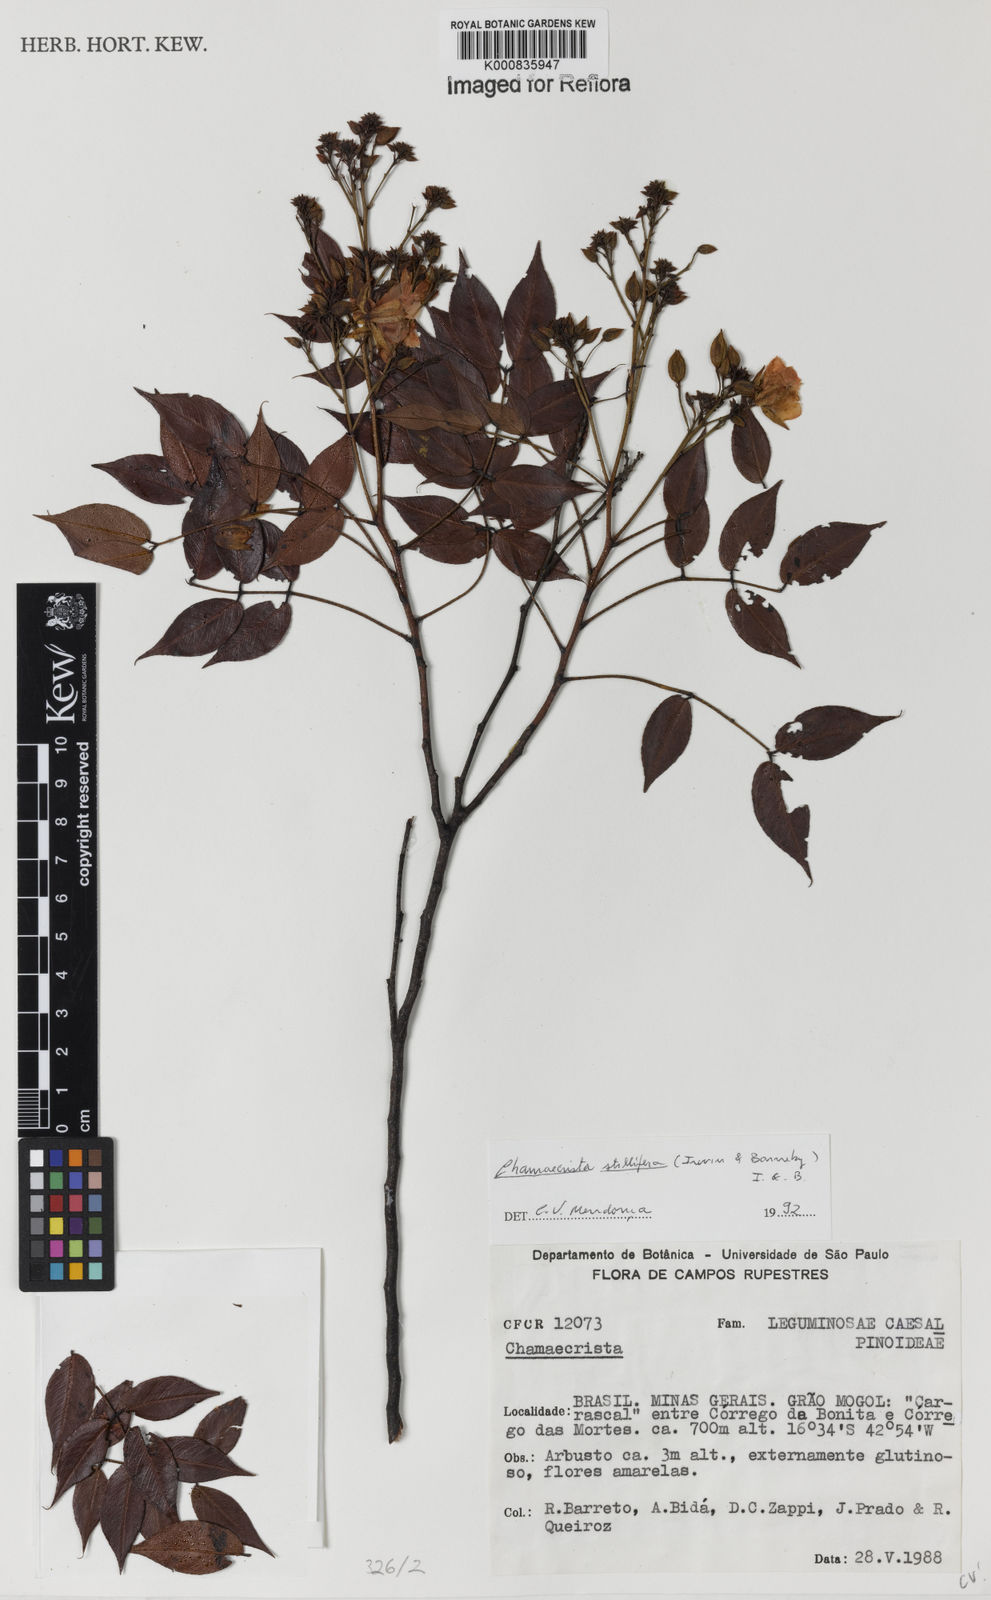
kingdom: Plantae
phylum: Tracheophyta
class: Magnoliopsida
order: Fabales
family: Fabaceae
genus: Chamaecrista
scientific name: Chamaecrista stillifera
